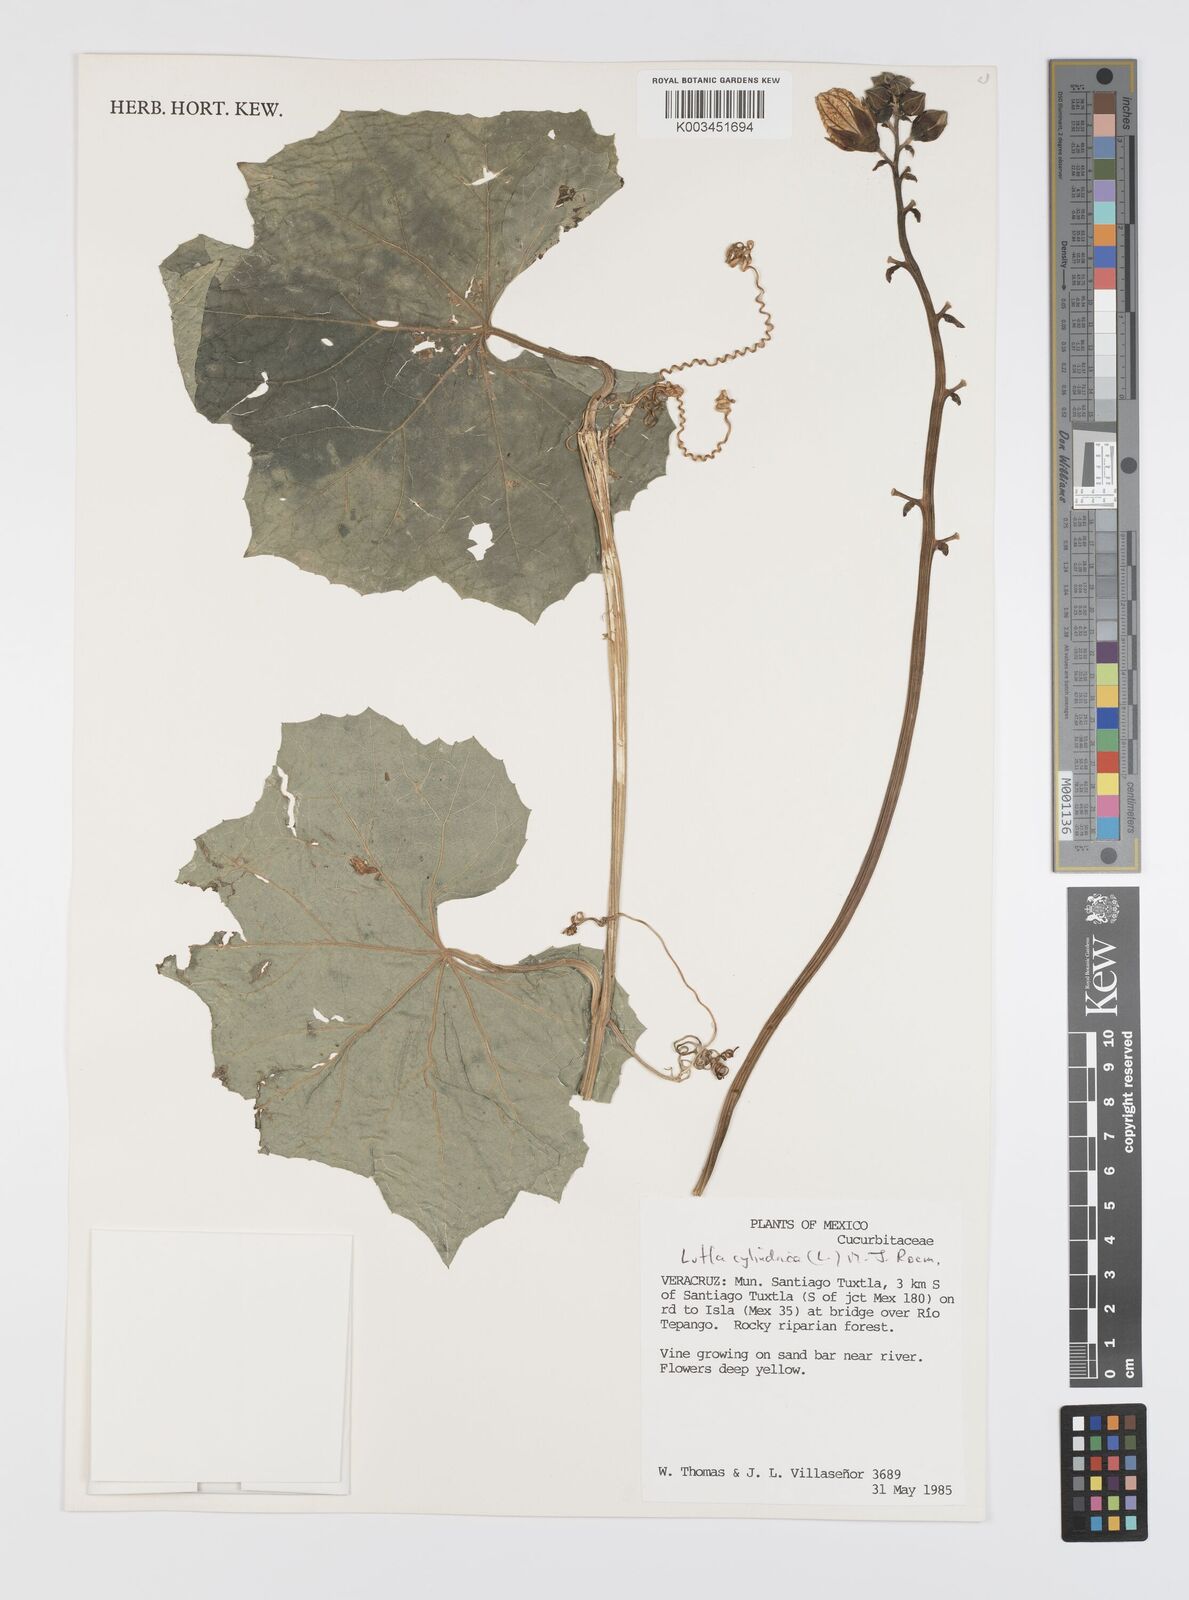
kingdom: Plantae
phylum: Tracheophyta
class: Magnoliopsida
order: Cucurbitales
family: Cucurbitaceae
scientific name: Cucurbitaceae
